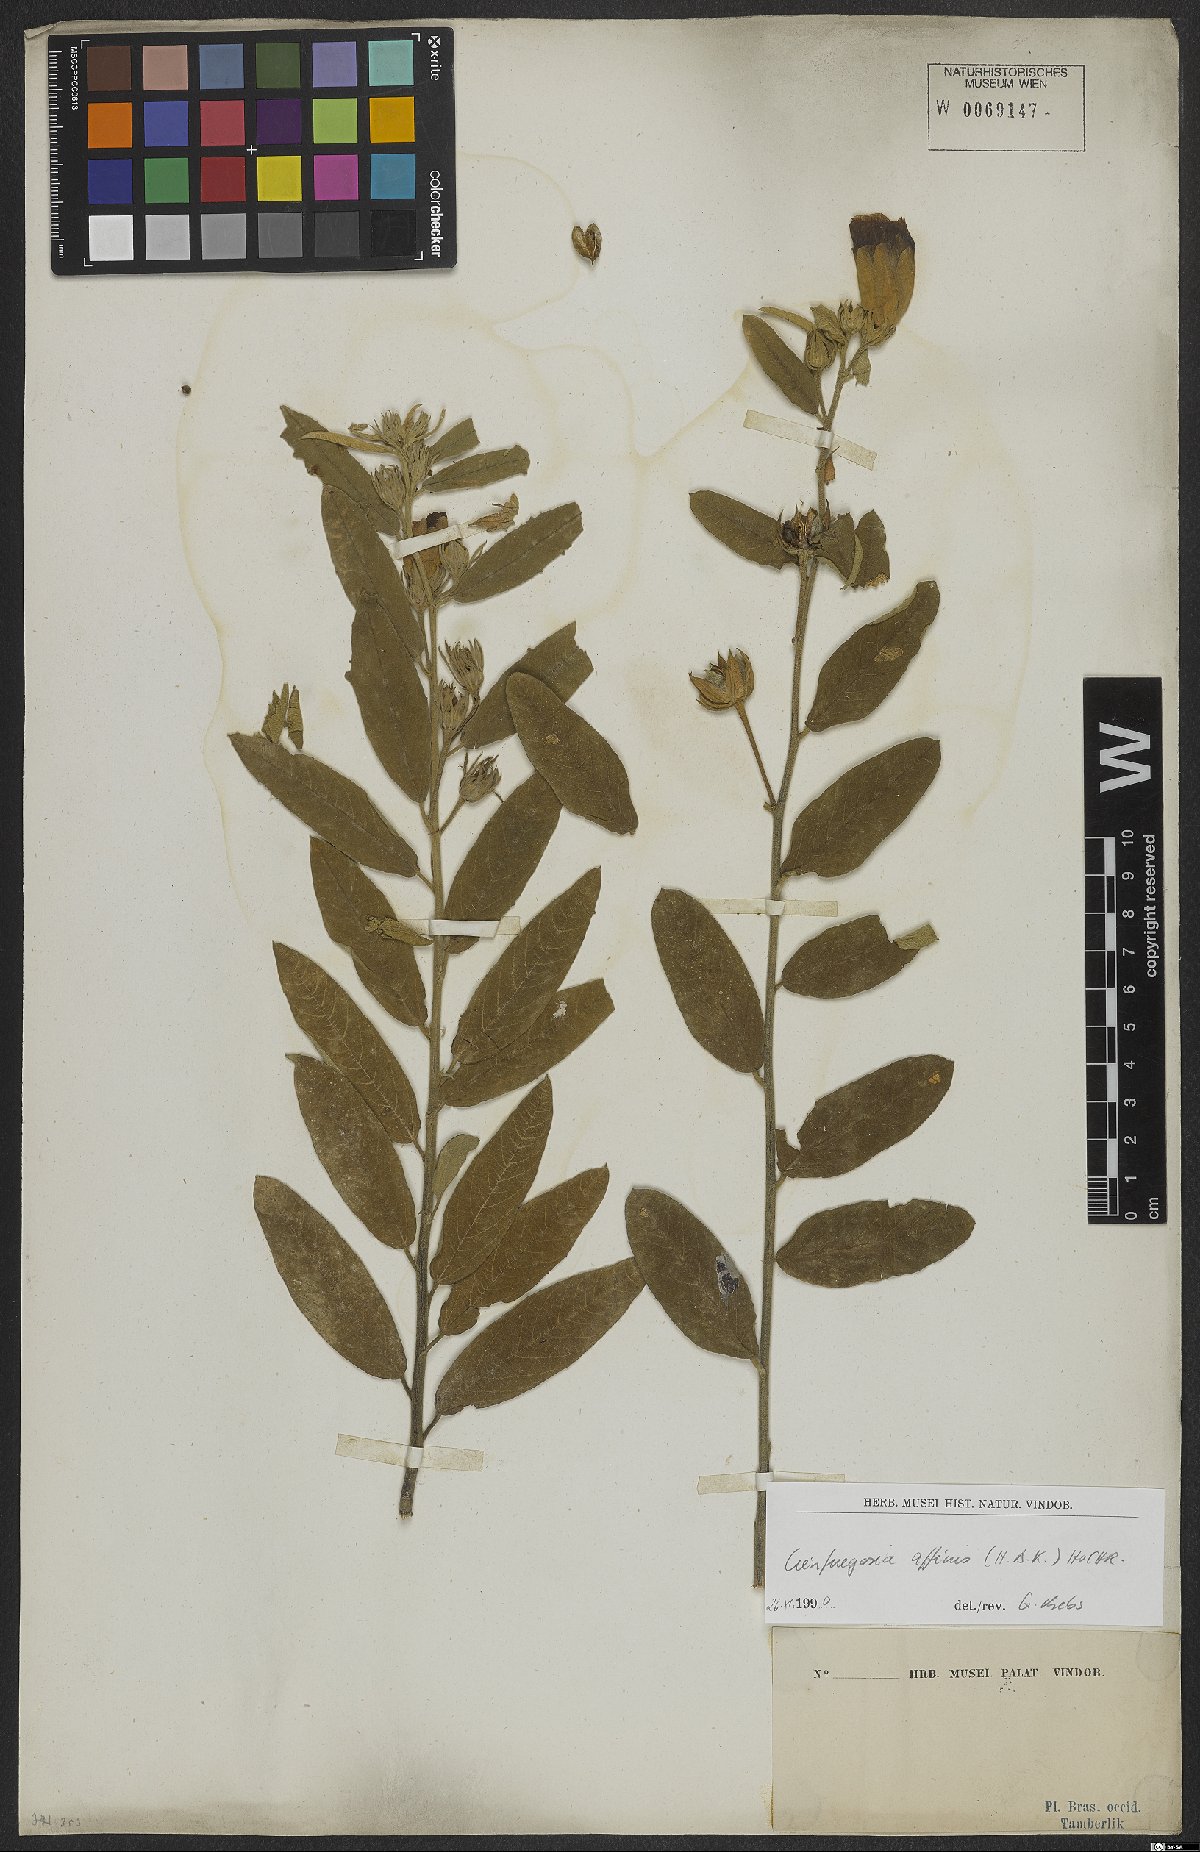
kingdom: Plantae
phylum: Tracheophyta
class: Magnoliopsida
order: Malvales
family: Malvaceae
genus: Cienfuegosia
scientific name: Cienfuegosia affinis
